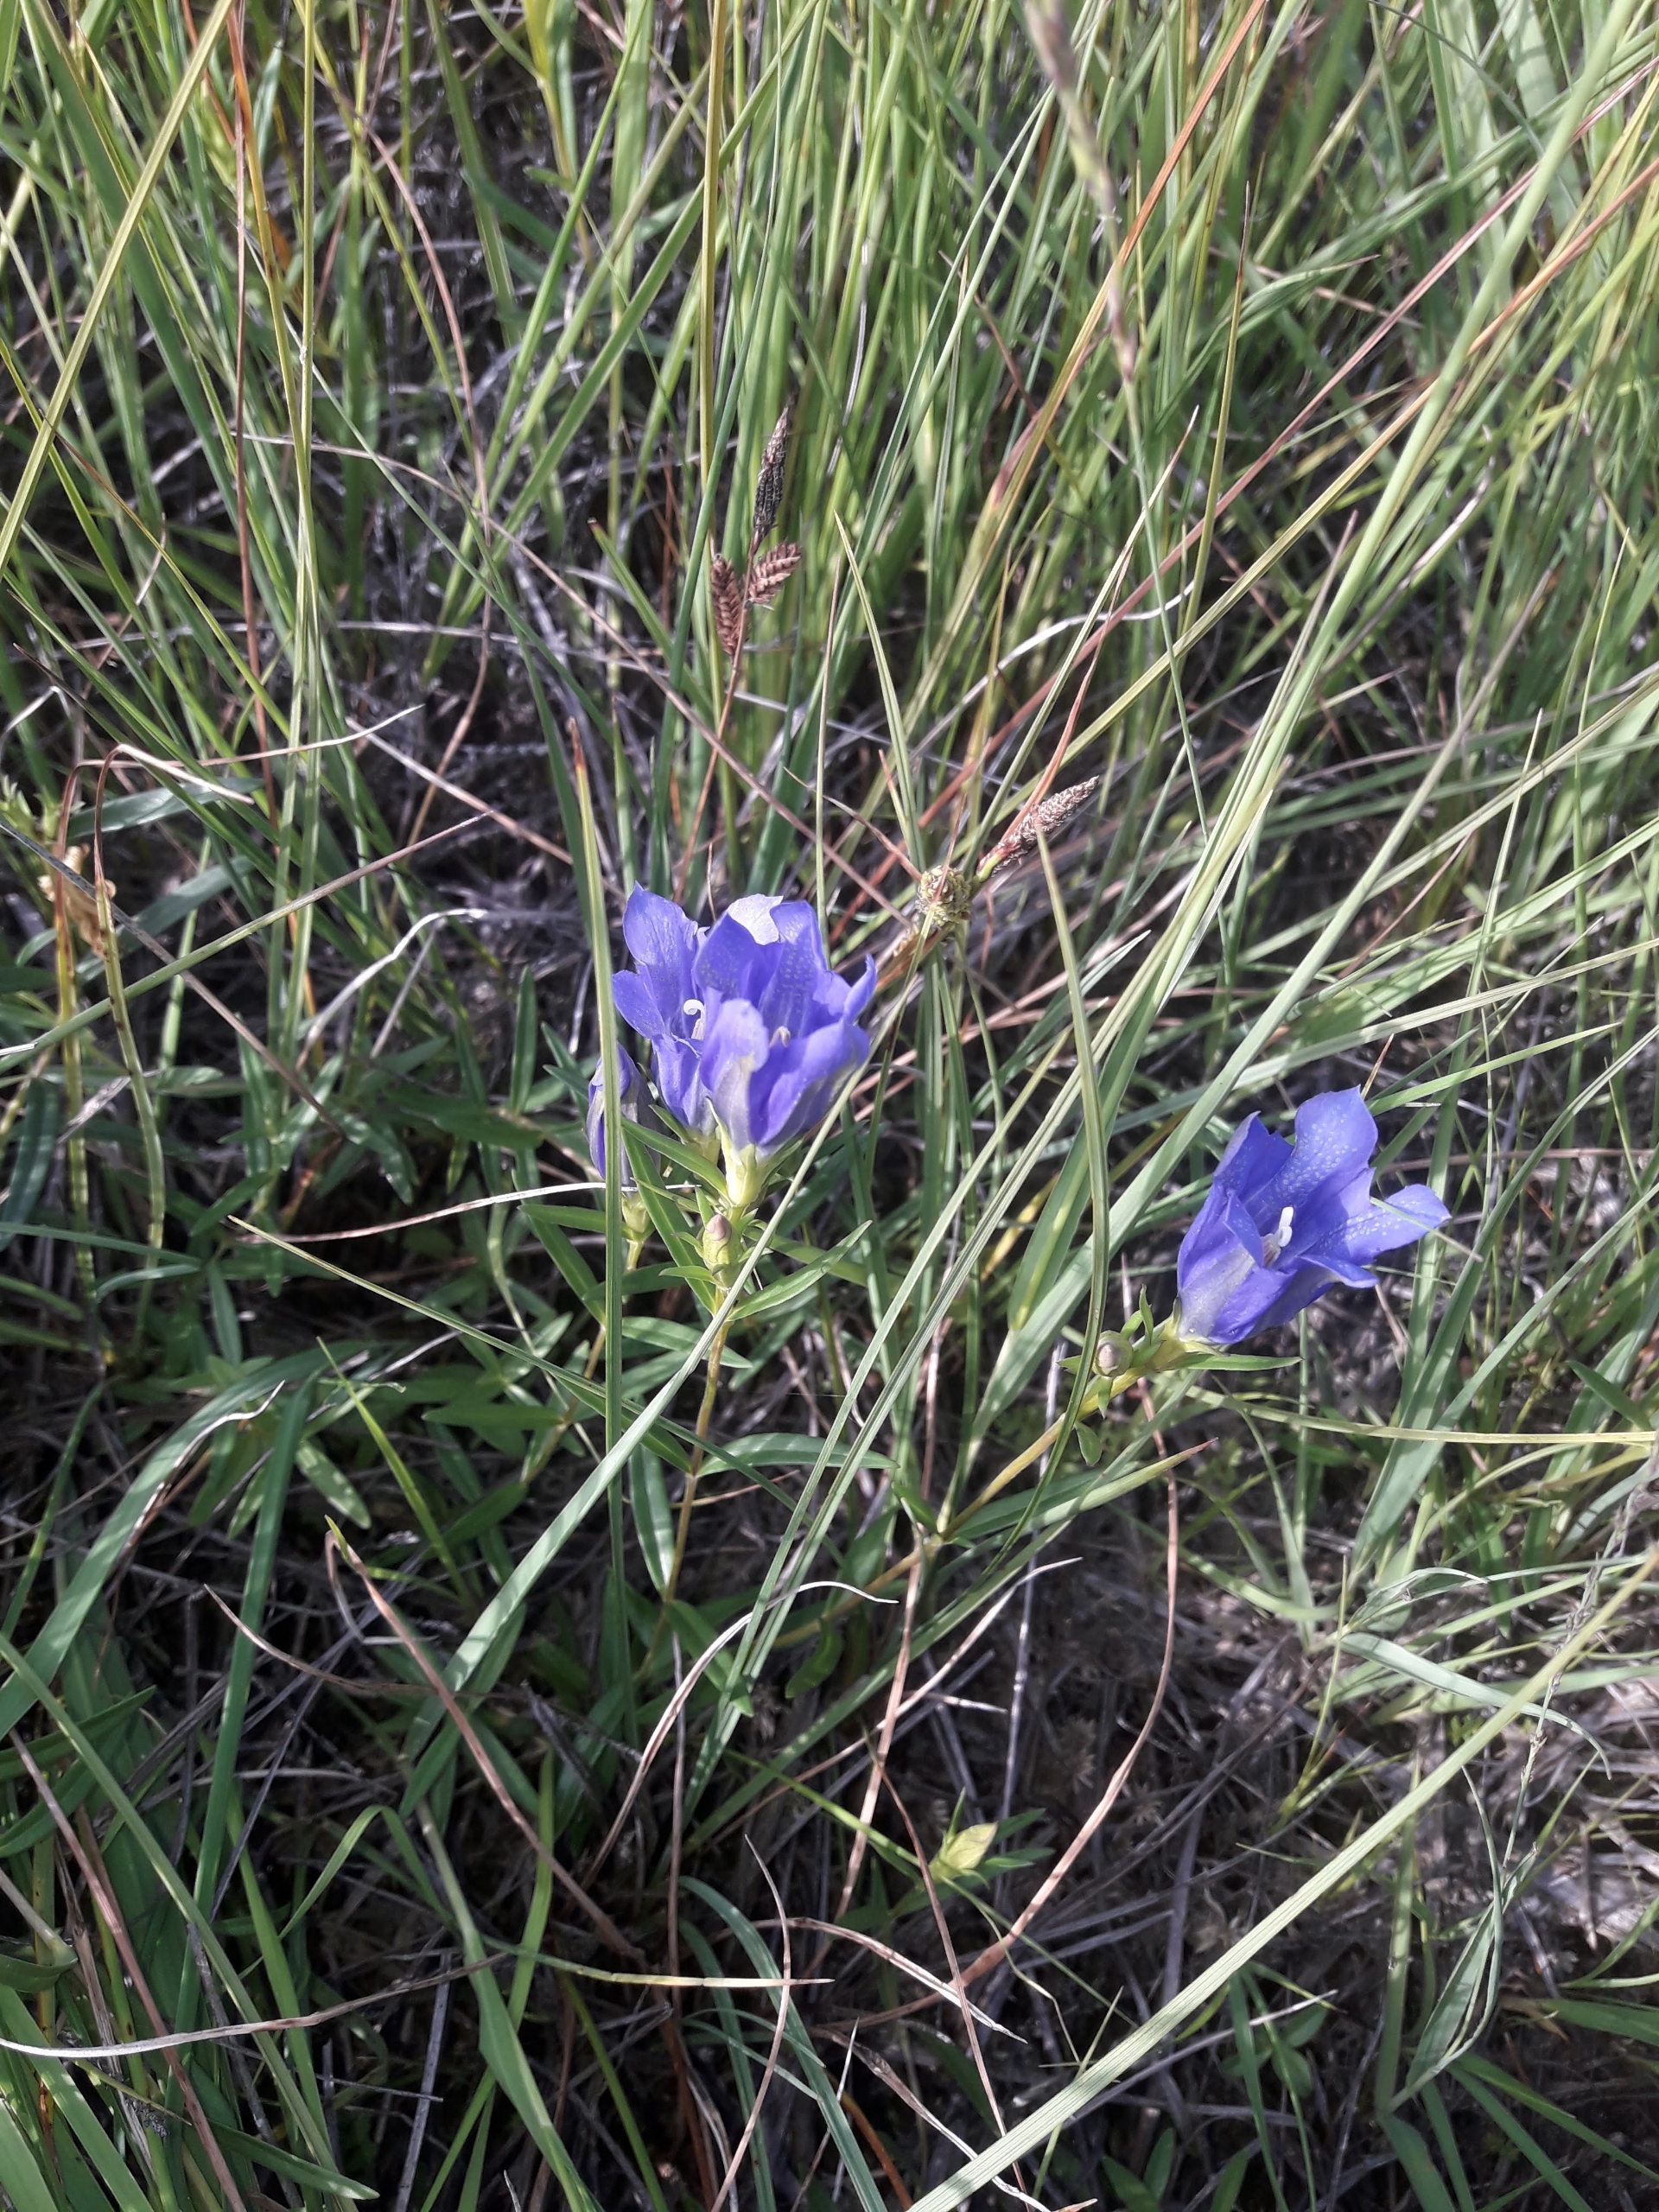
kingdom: Plantae
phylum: Tracheophyta
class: Magnoliopsida
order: Gentianales
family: Gentianaceae
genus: Gentiana
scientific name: Gentiana pneumonanthe
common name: Klokke-ensian
